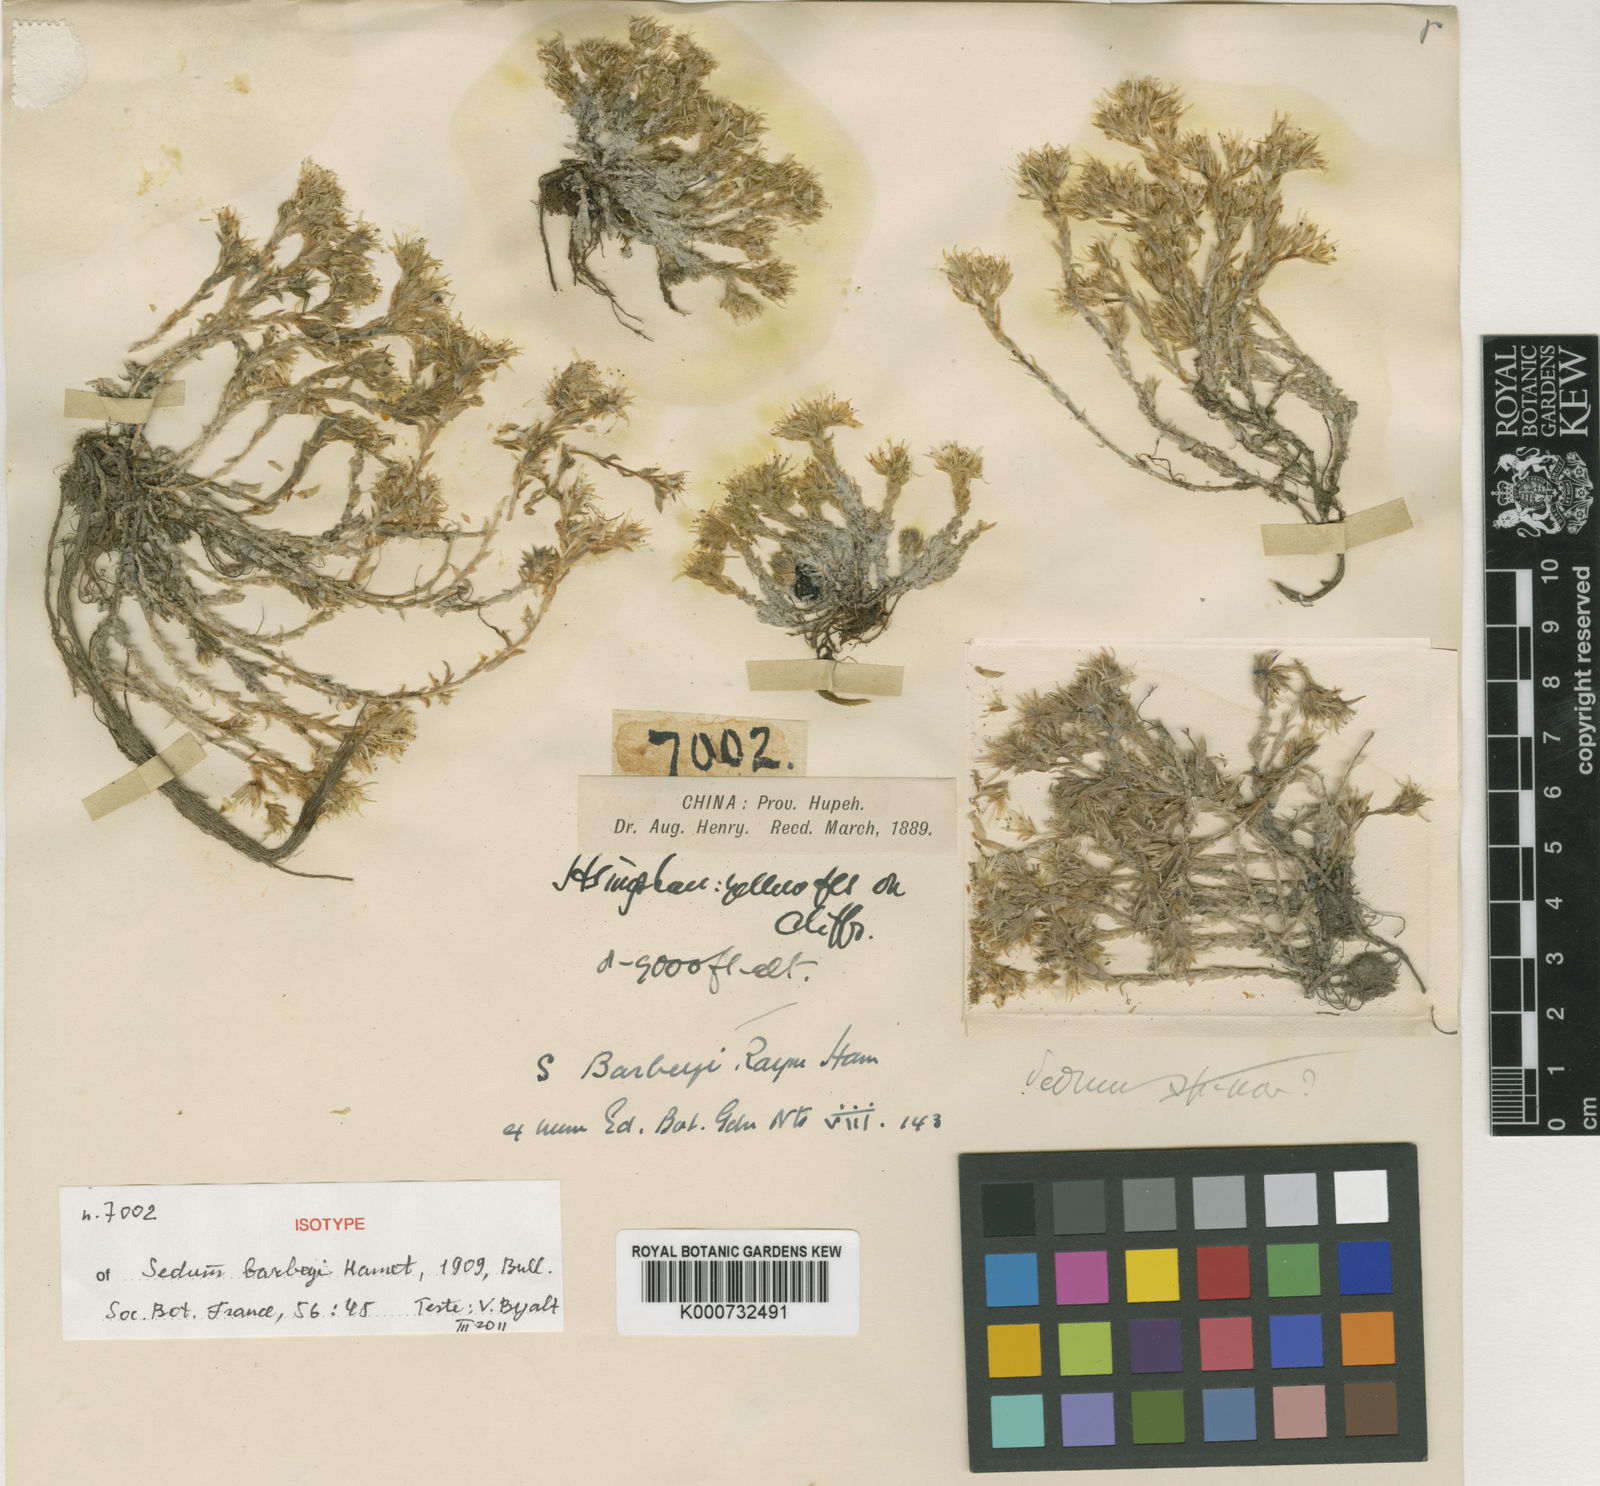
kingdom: Plantae
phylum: Tracheophyta
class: Magnoliopsida
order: Saxifragales
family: Crassulaceae
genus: Sedum
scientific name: Sedum barbeyi
